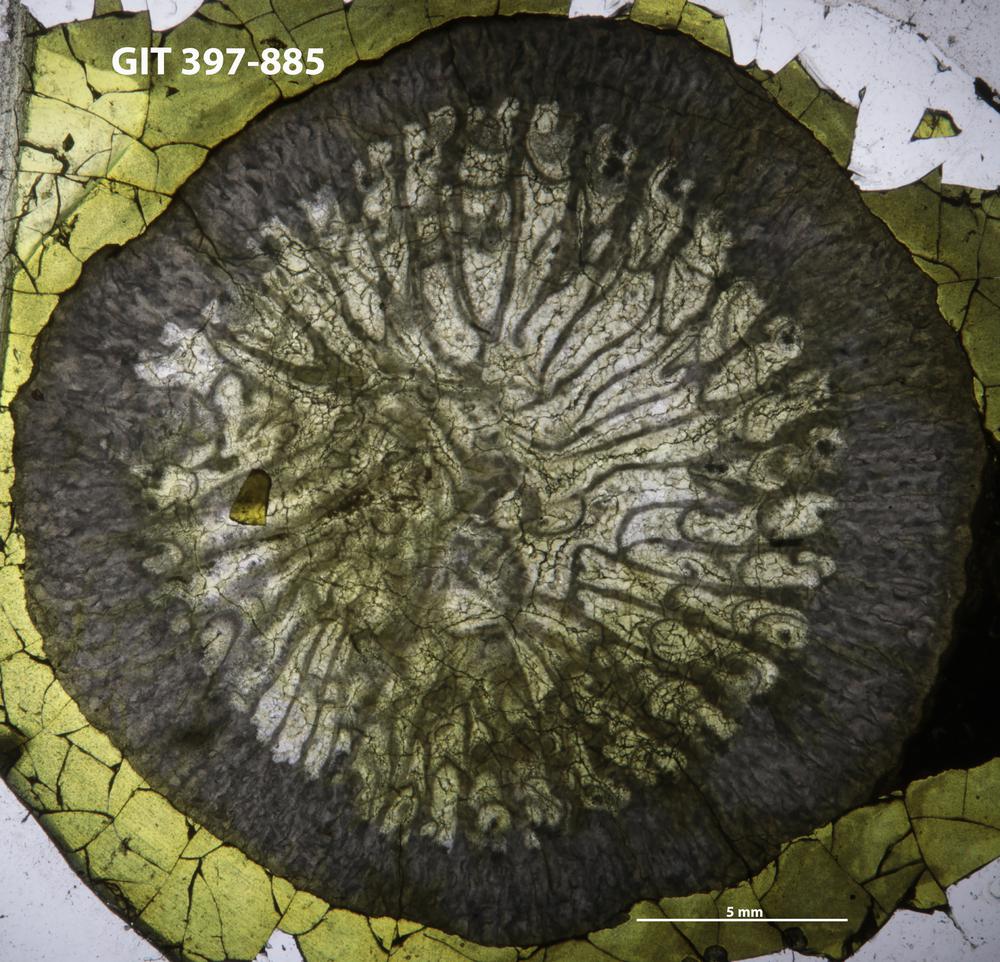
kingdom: Animalia
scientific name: Animalia
